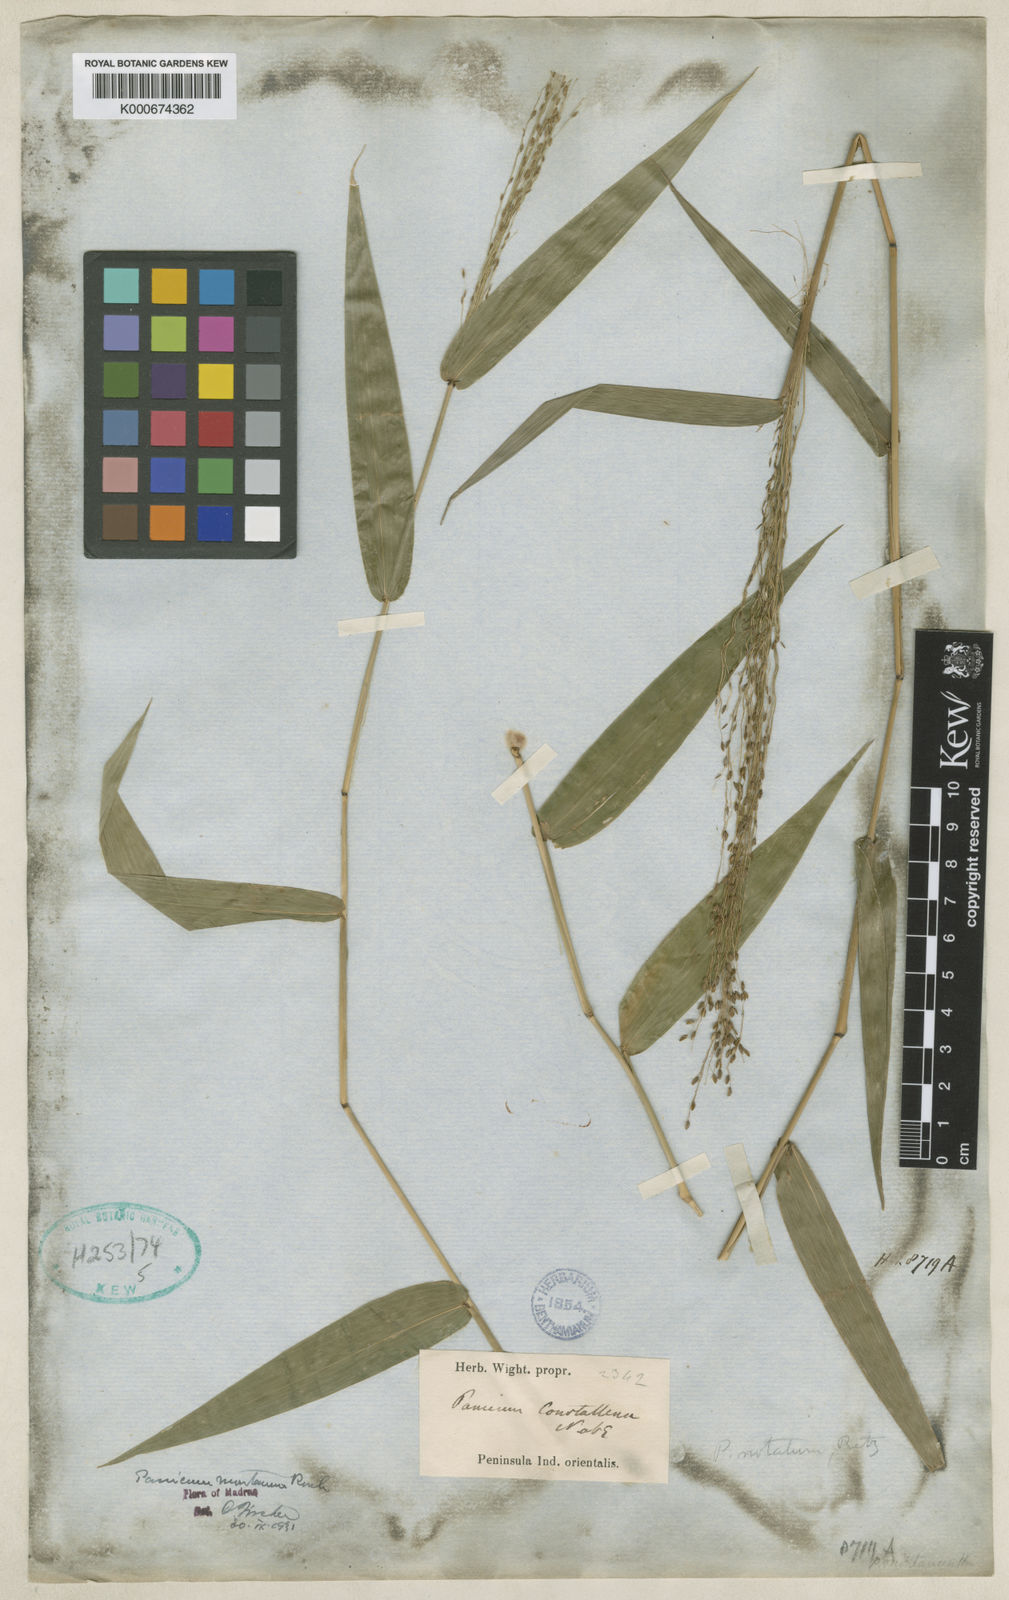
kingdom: Plantae
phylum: Tracheophyta
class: Liliopsida
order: Poales
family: Poaceae
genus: Panicum
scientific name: Panicum notatum
